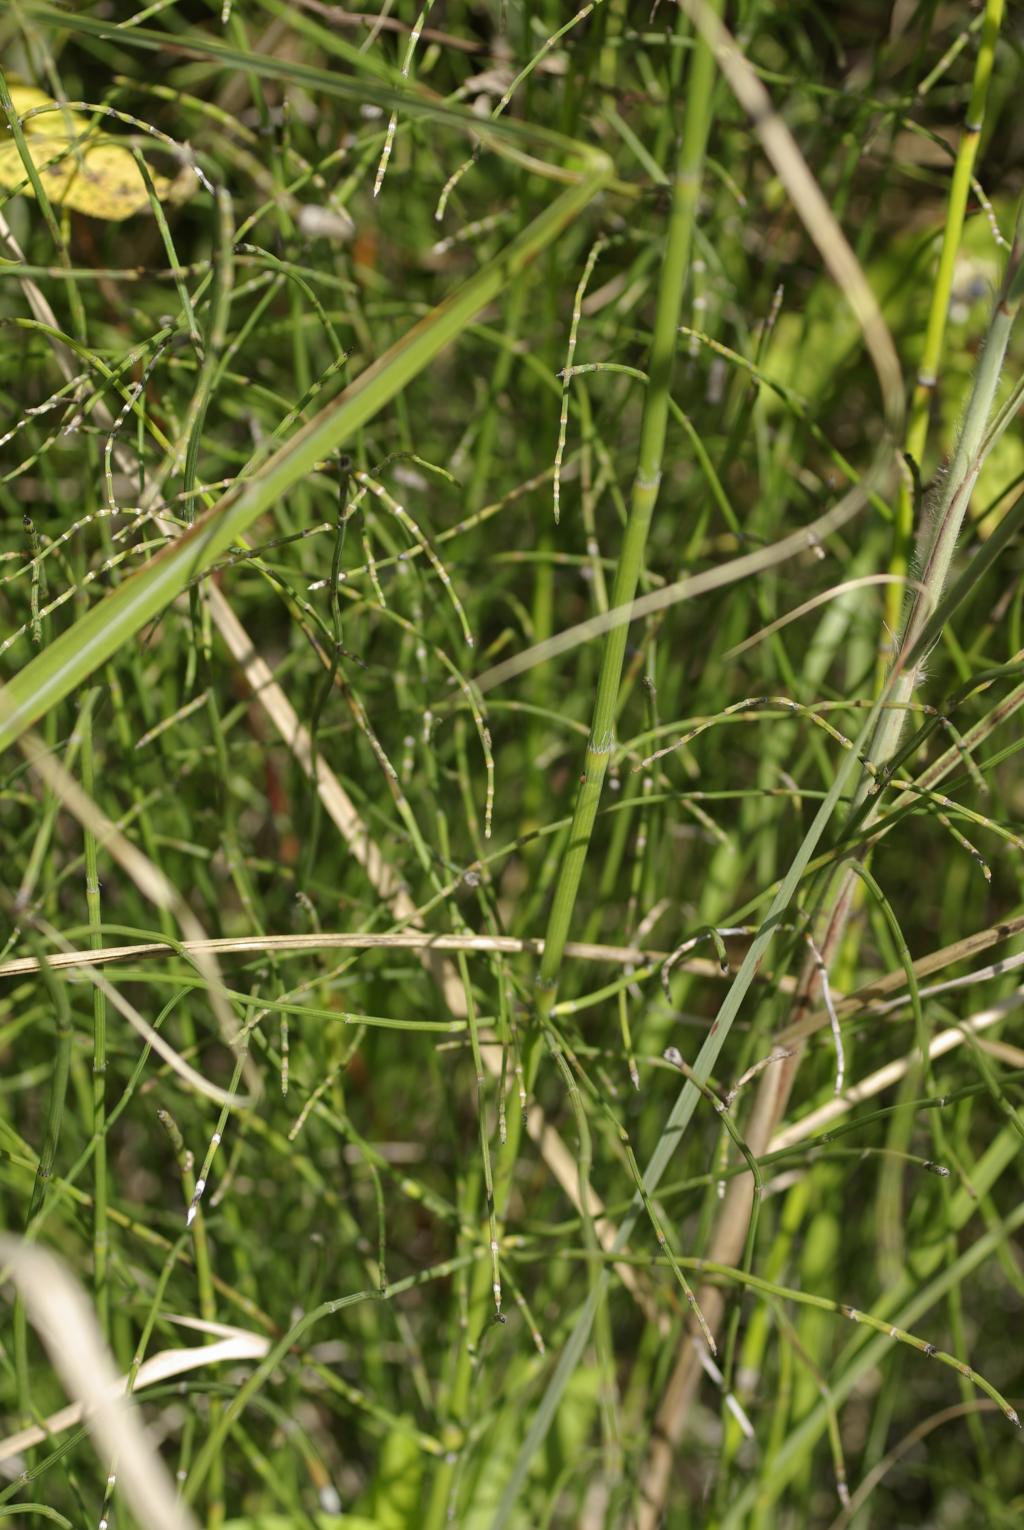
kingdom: Plantae
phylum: Tracheophyta
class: Polypodiopsida
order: Equisetales
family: Equisetaceae
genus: Equisetum
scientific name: Equisetum ramosissimum
